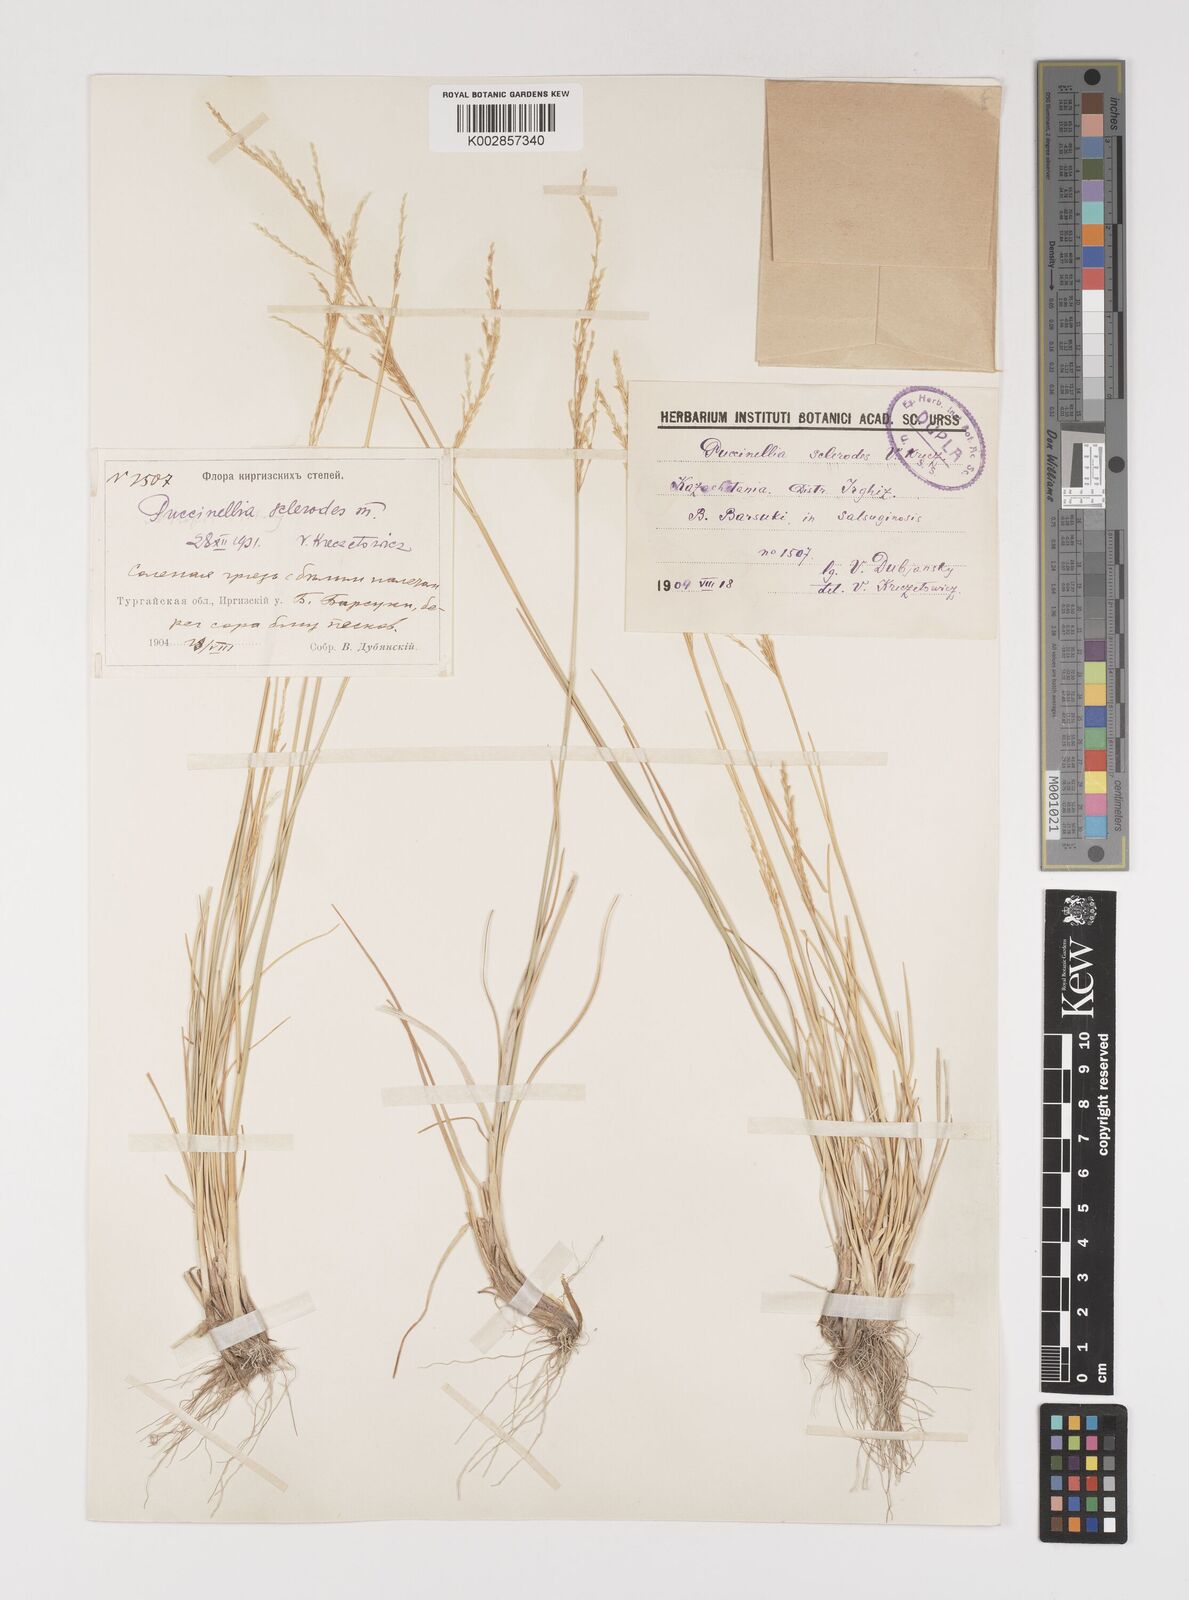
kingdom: Plantae
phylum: Tracheophyta
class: Liliopsida
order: Poales
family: Poaceae
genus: Puccinellia
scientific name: Puccinellia gigantea
